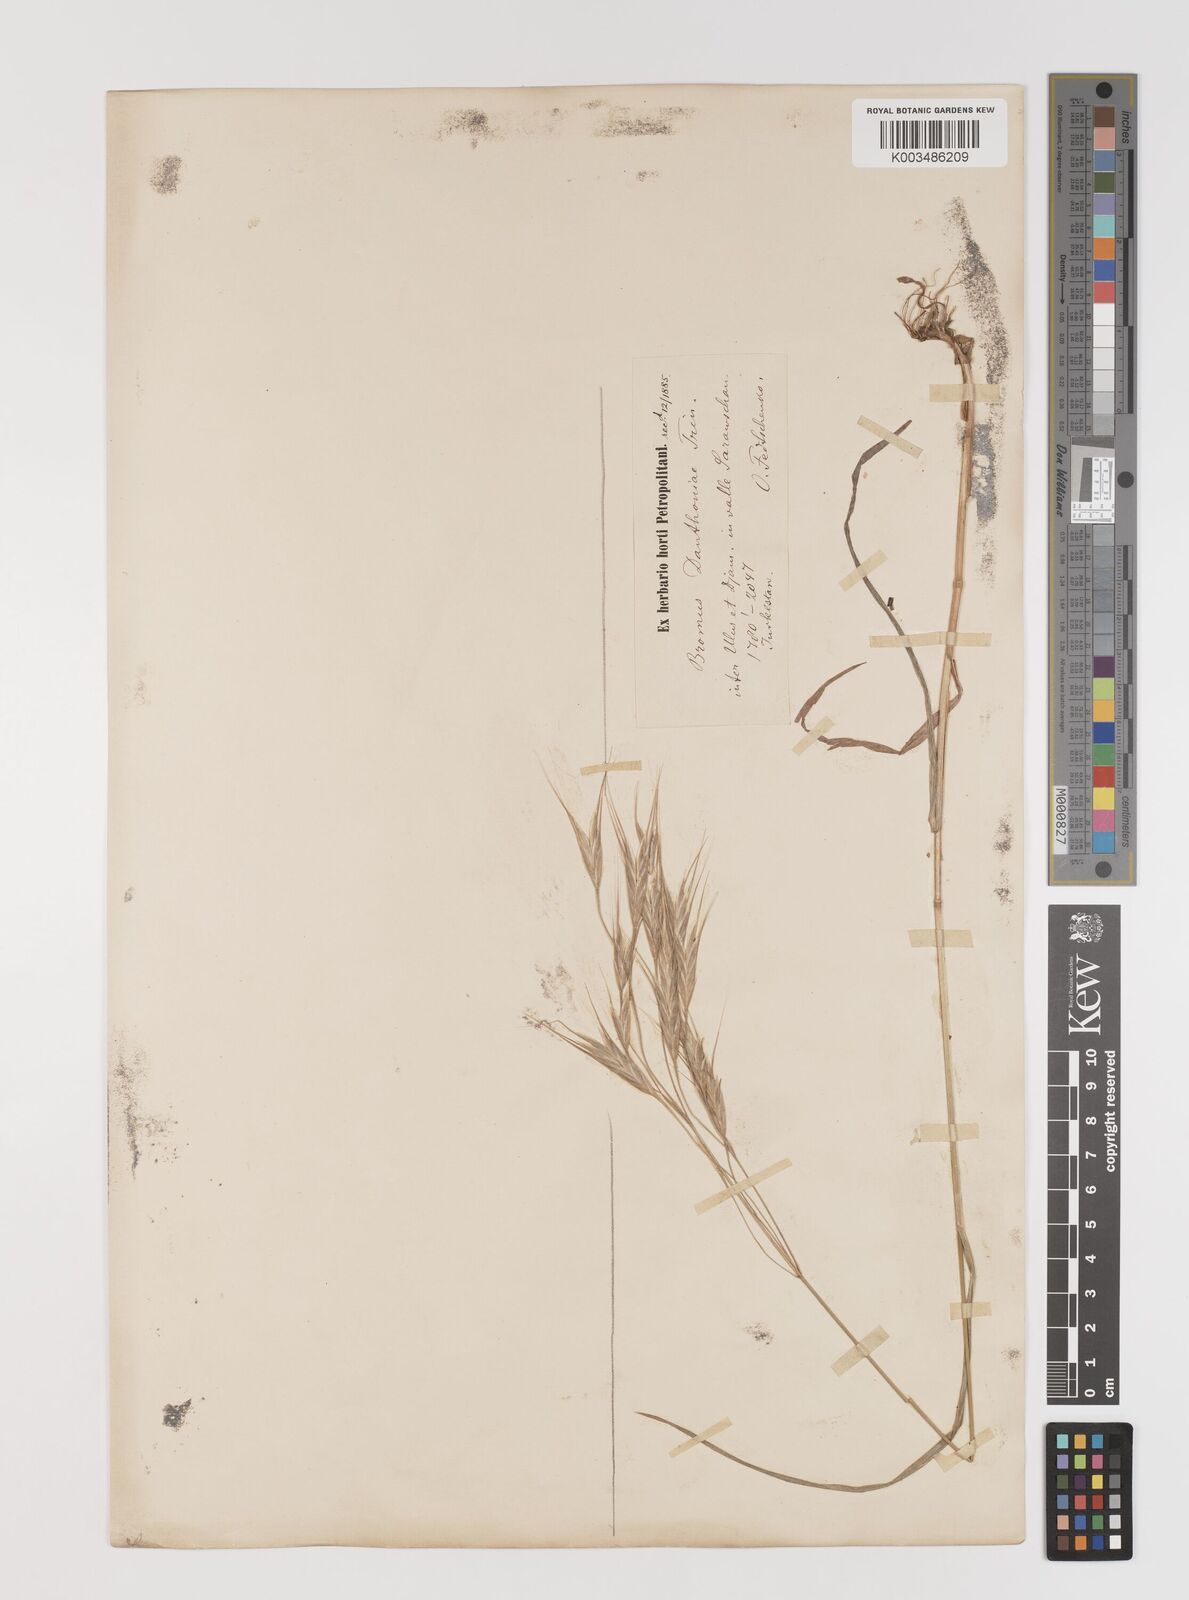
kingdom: Plantae
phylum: Tracheophyta
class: Liliopsida
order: Poales
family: Poaceae
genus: Bromus
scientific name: Bromus oxyodon
